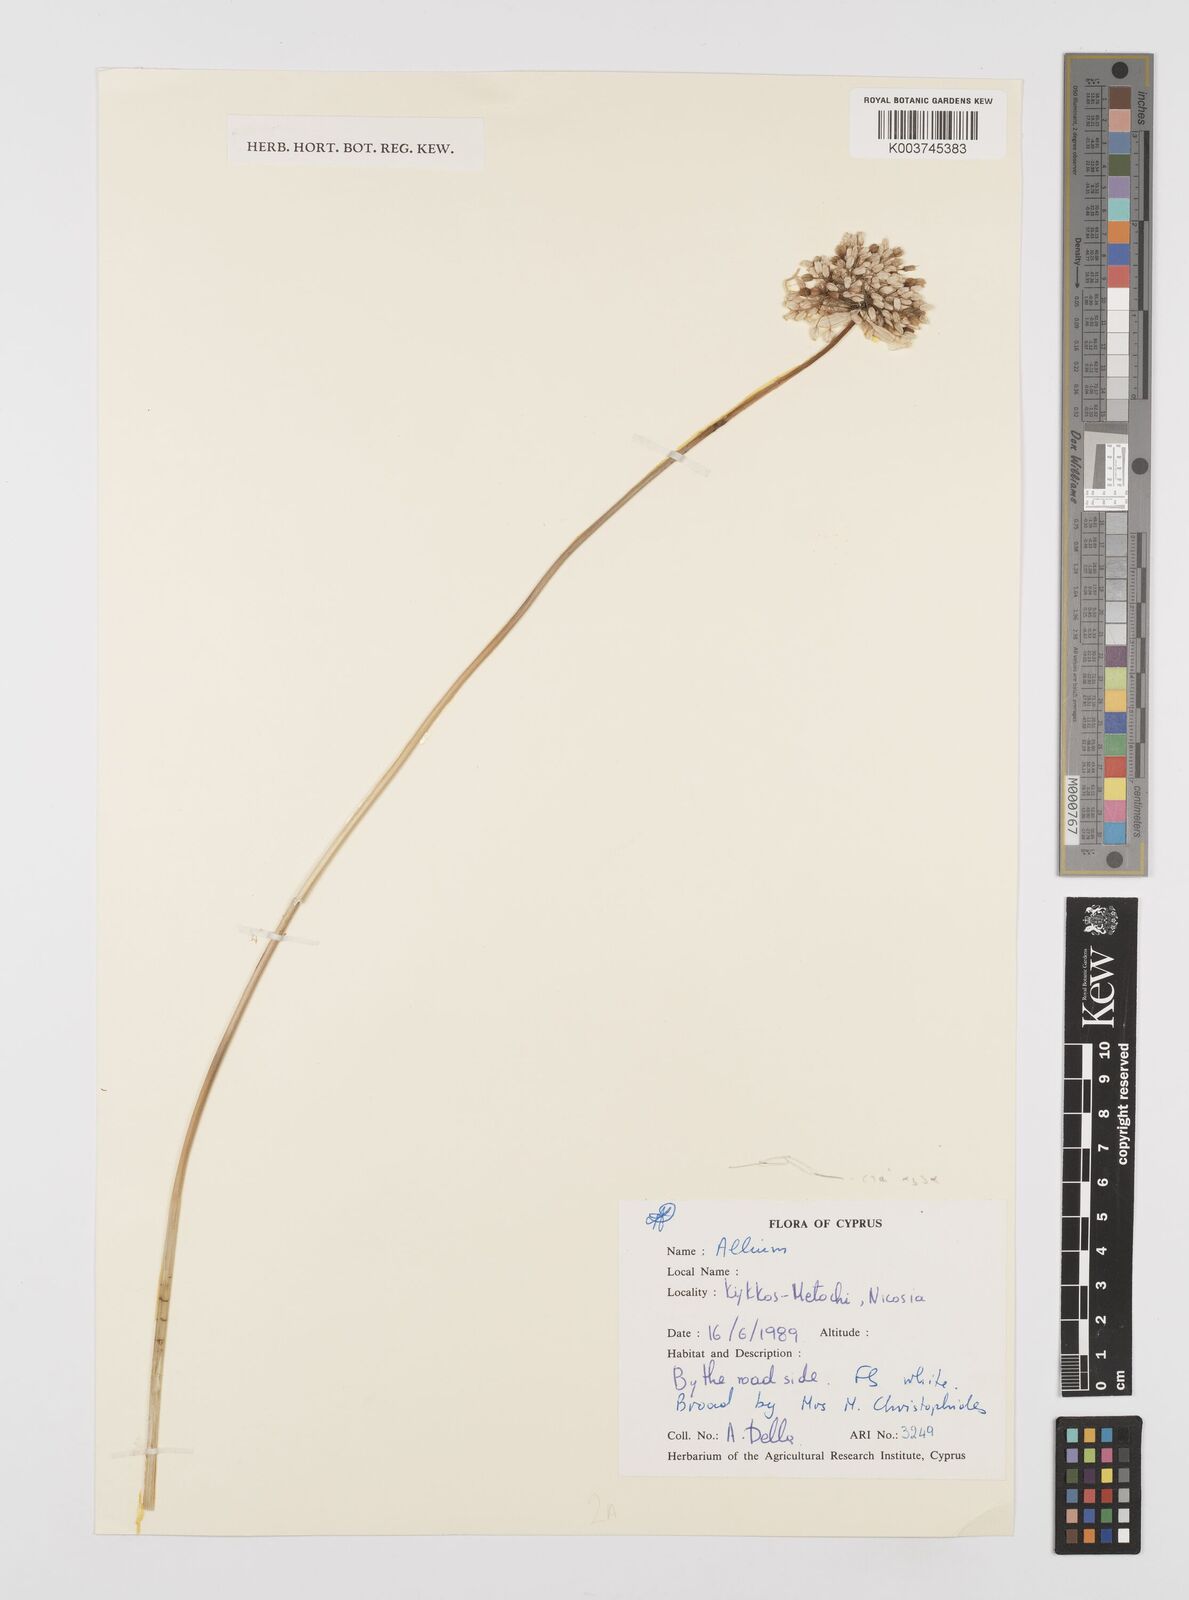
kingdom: Plantae
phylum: Tracheophyta
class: Liliopsida
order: Asparagales
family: Amaryllidaceae
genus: Allium
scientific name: Allium
